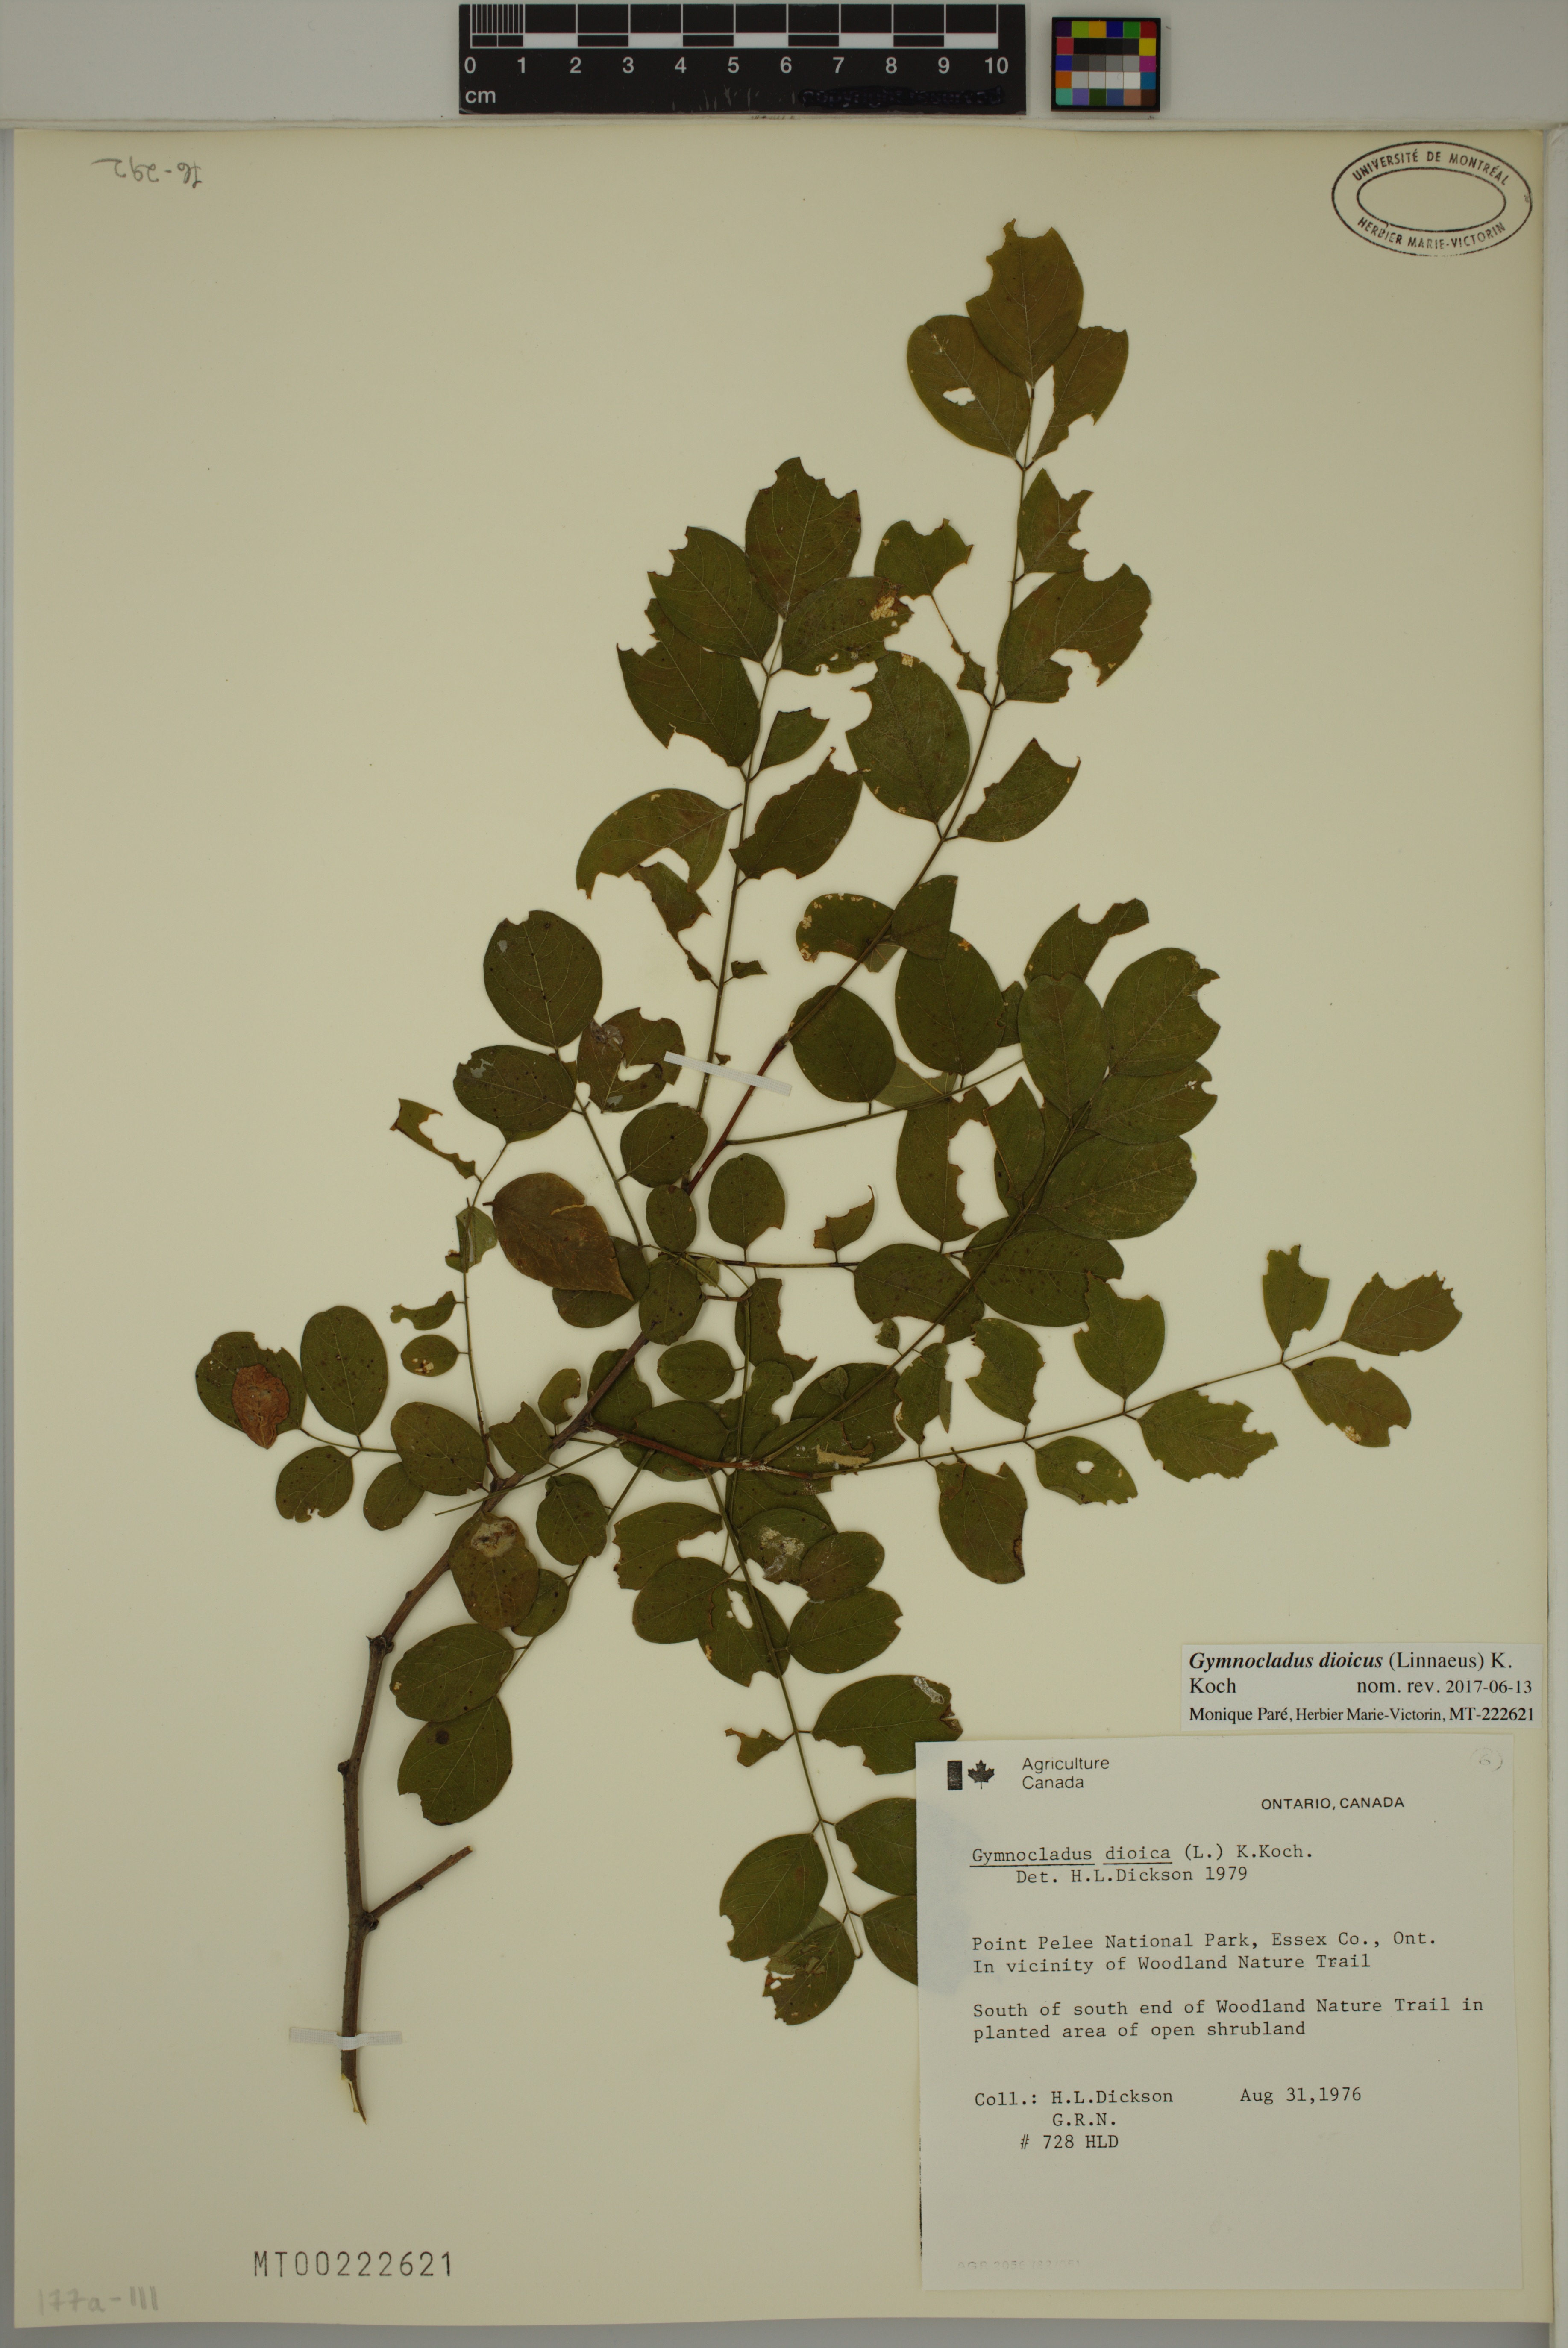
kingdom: Plantae
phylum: Tracheophyta
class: Magnoliopsida
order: Fabales
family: Fabaceae
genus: Gymnocladus
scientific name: Gymnocladus dioicus
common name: Kentucky coffee-tree
